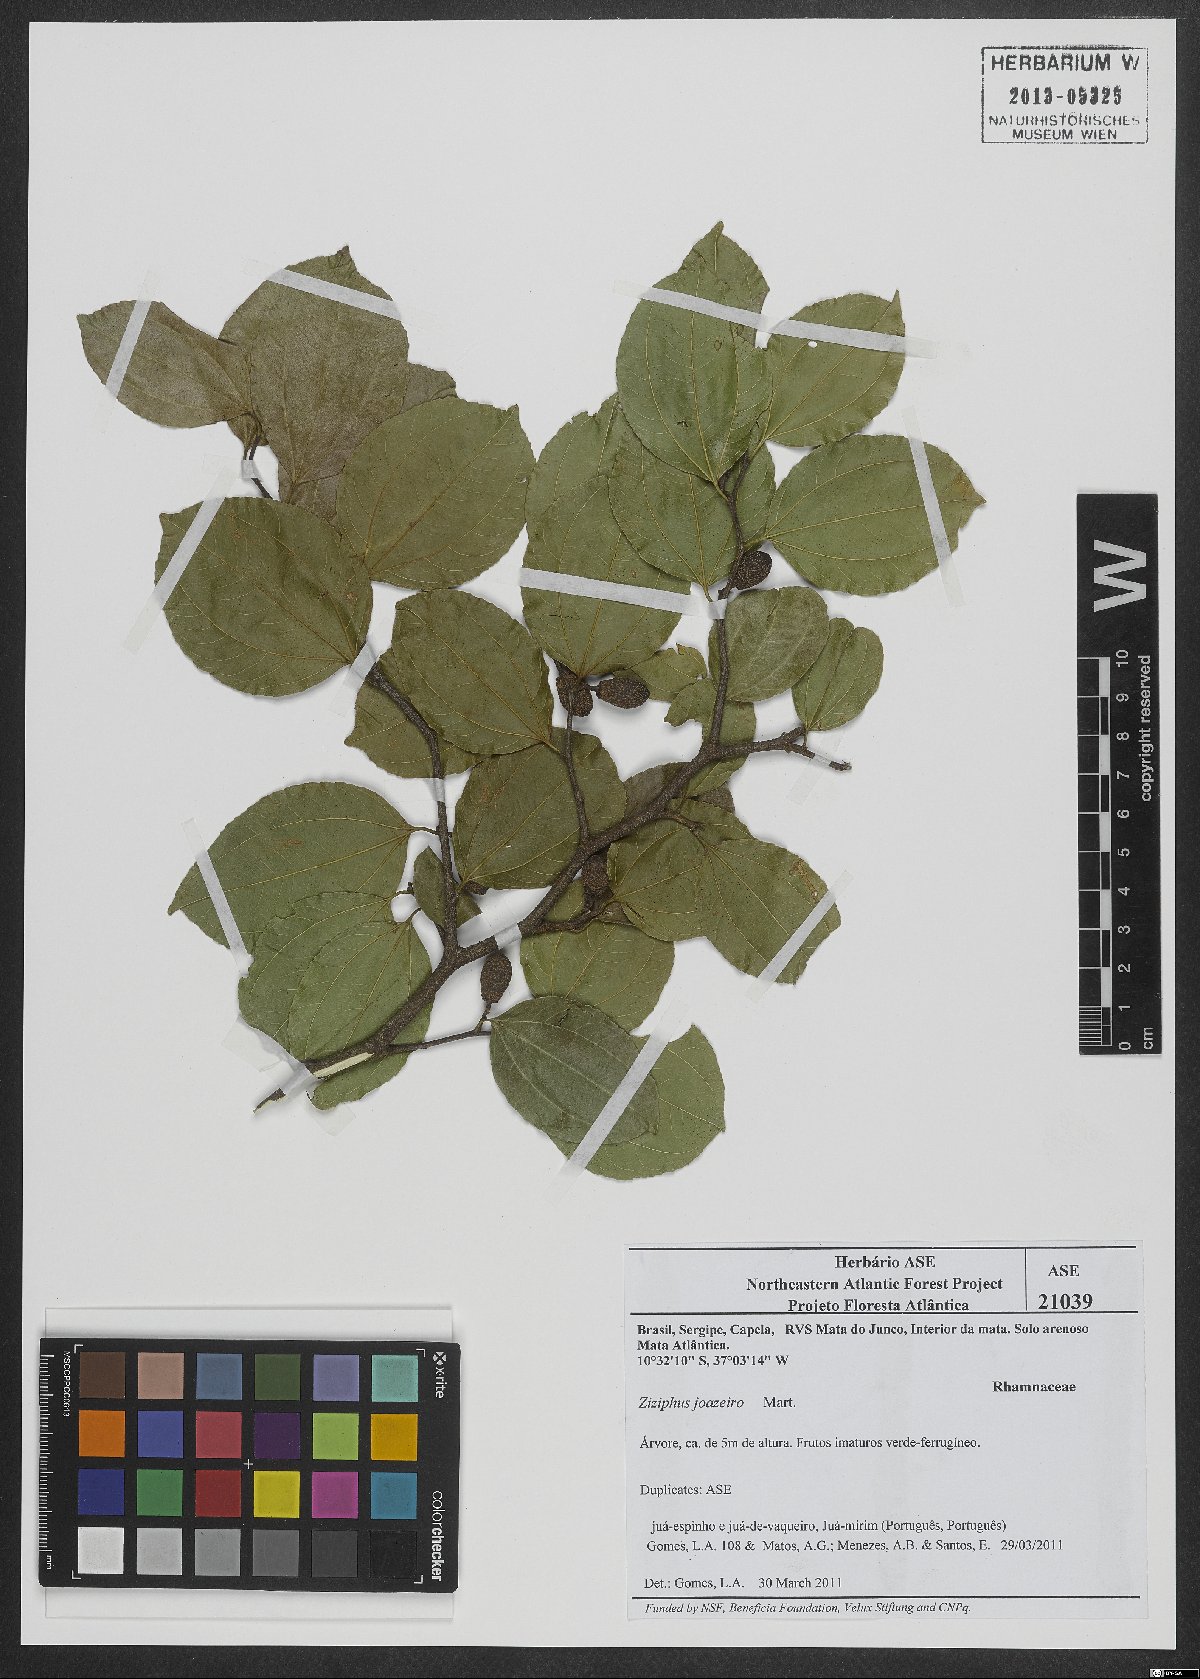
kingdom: Plantae
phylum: Tracheophyta
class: Magnoliopsida
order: Rosales
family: Rhamnaceae
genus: Sarcomphalus
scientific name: Sarcomphalus joazeiro
